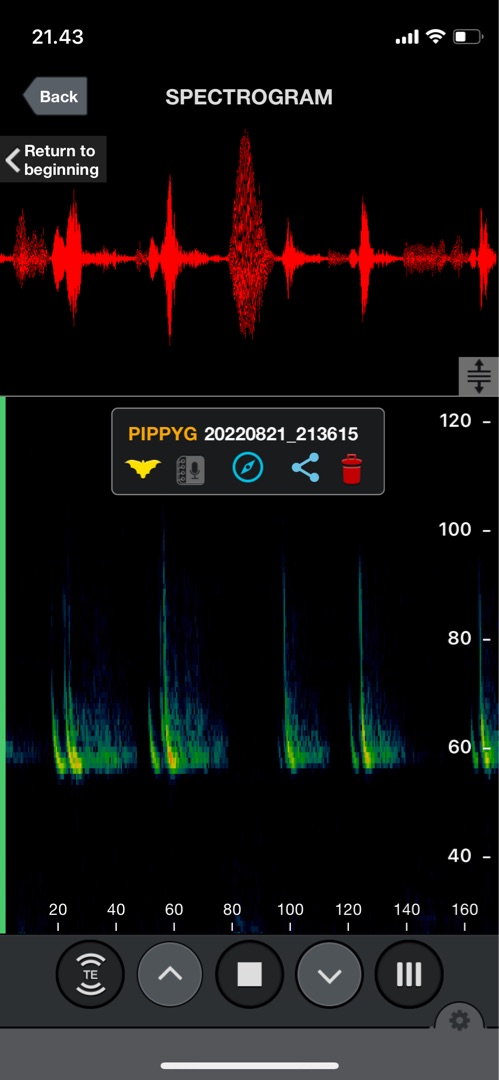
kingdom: Animalia
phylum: Chordata
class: Mammalia
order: Chiroptera
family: Vespertilionidae
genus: Pipistrellus
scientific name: Pipistrellus pygmaeus
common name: Dværgflagermus
